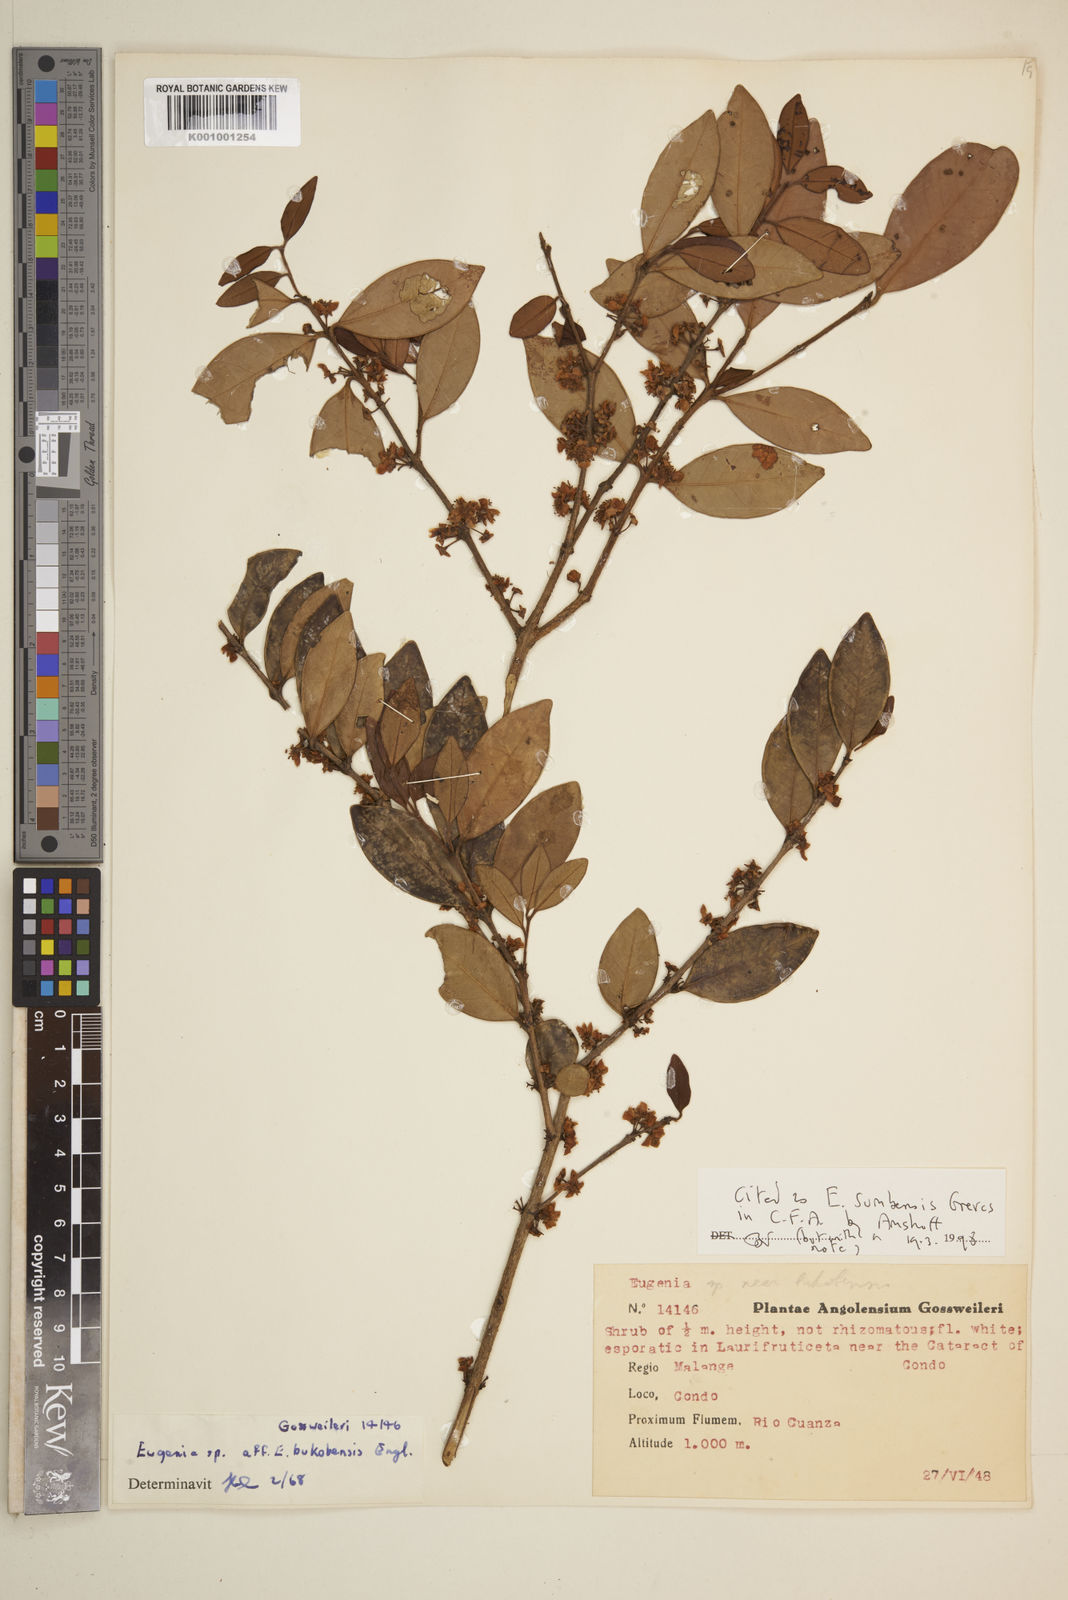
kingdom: Plantae
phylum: Tracheophyta
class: Magnoliopsida
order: Myrtales
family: Myrtaceae
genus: Eugenia
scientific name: Eugenia sumbensis
